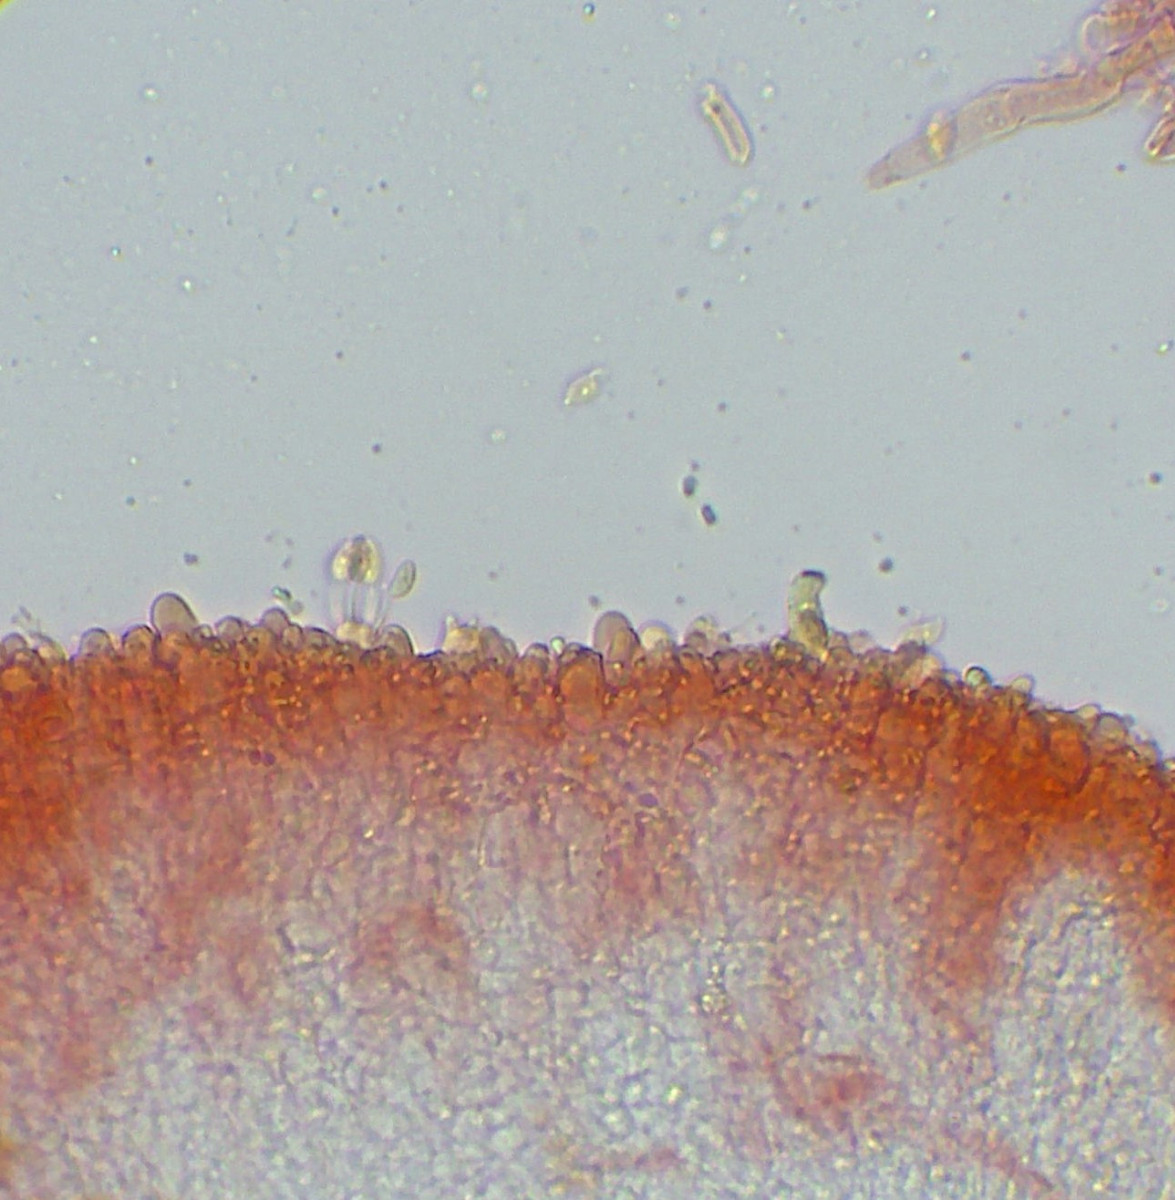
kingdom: Fungi
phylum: Basidiomycota
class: Agaricomycetes
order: Agaricales
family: Typhulaceae
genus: Typhula
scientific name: Typhula
